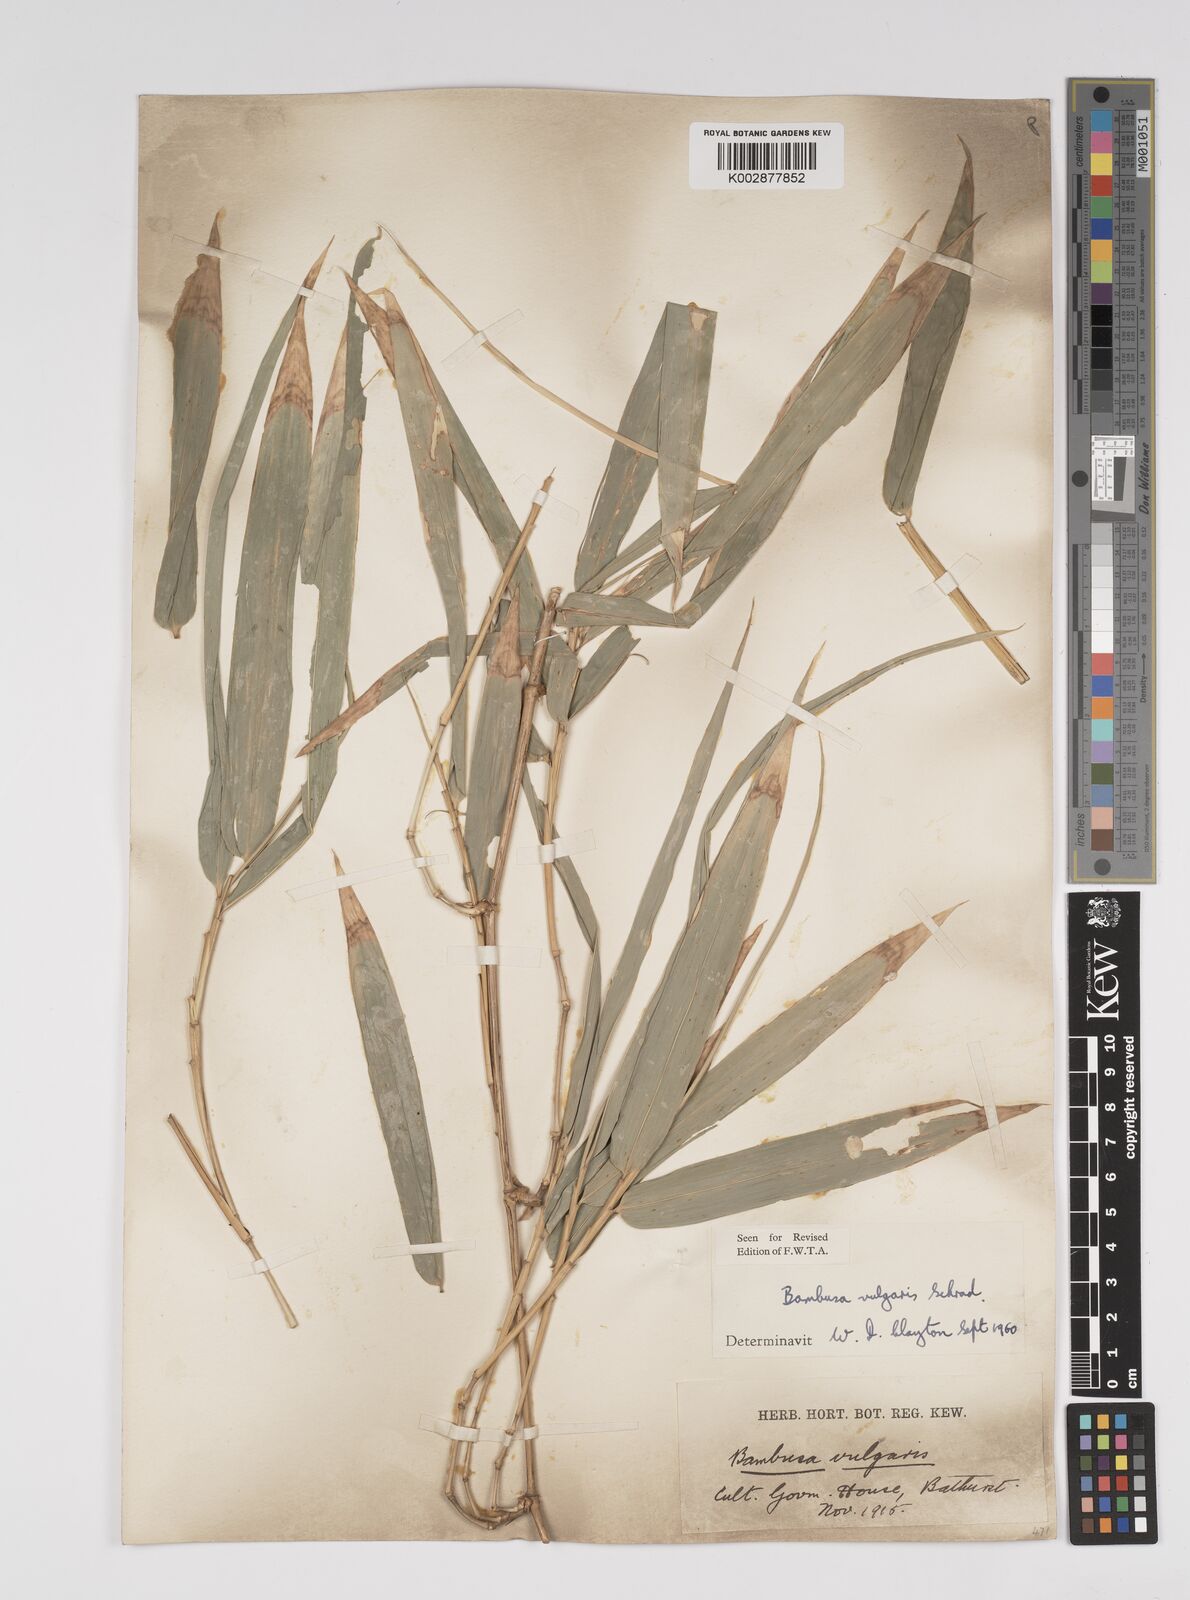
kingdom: Plantae
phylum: Tracheophyta
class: Liliopsida
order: Poales
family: Poaceae
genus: Bambusa
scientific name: Bambusa vulgaris
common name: Common bamboo
